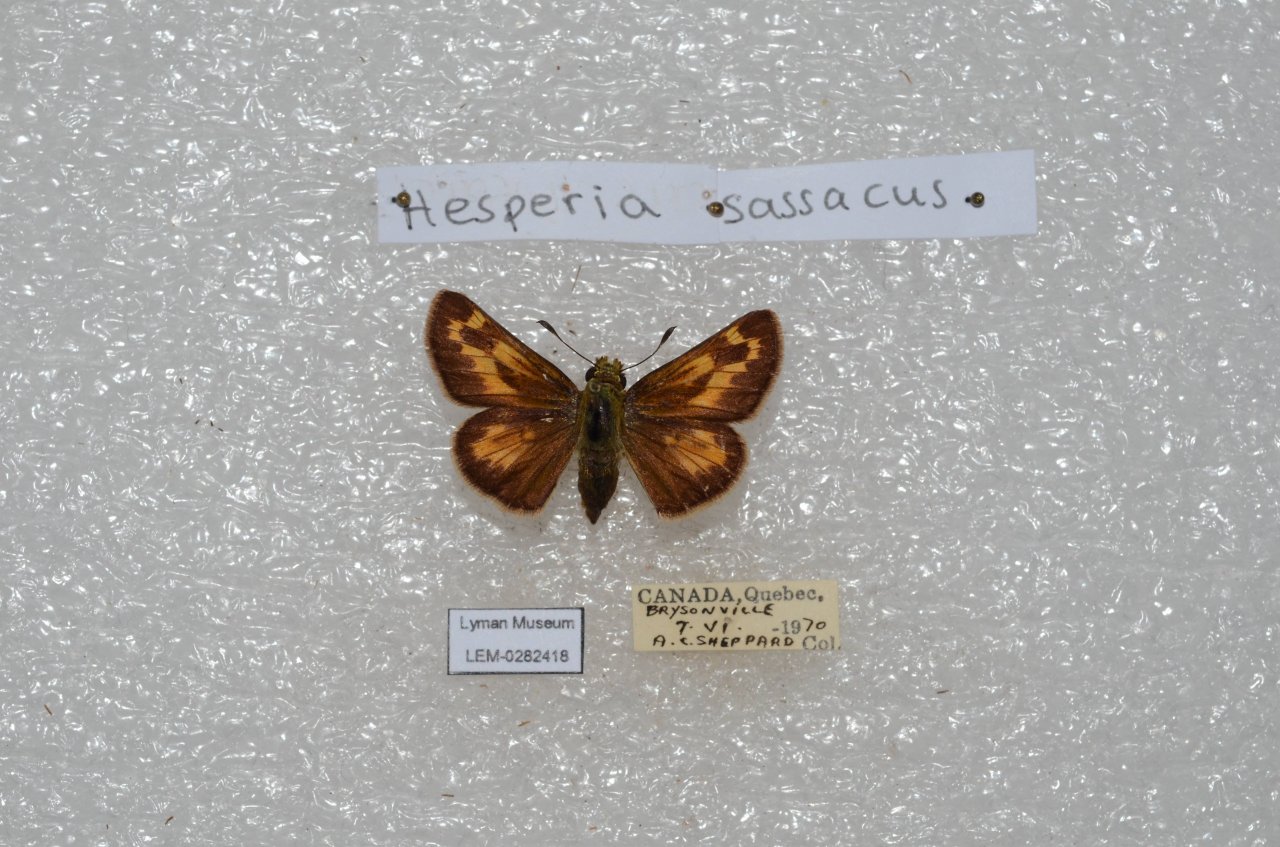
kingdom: Animalia
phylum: Arthropoda
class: Insecta
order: Lepidoptera
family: Hesperiidae
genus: Hesperia
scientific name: Hesperia sassacus
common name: Sassacus Skipper
